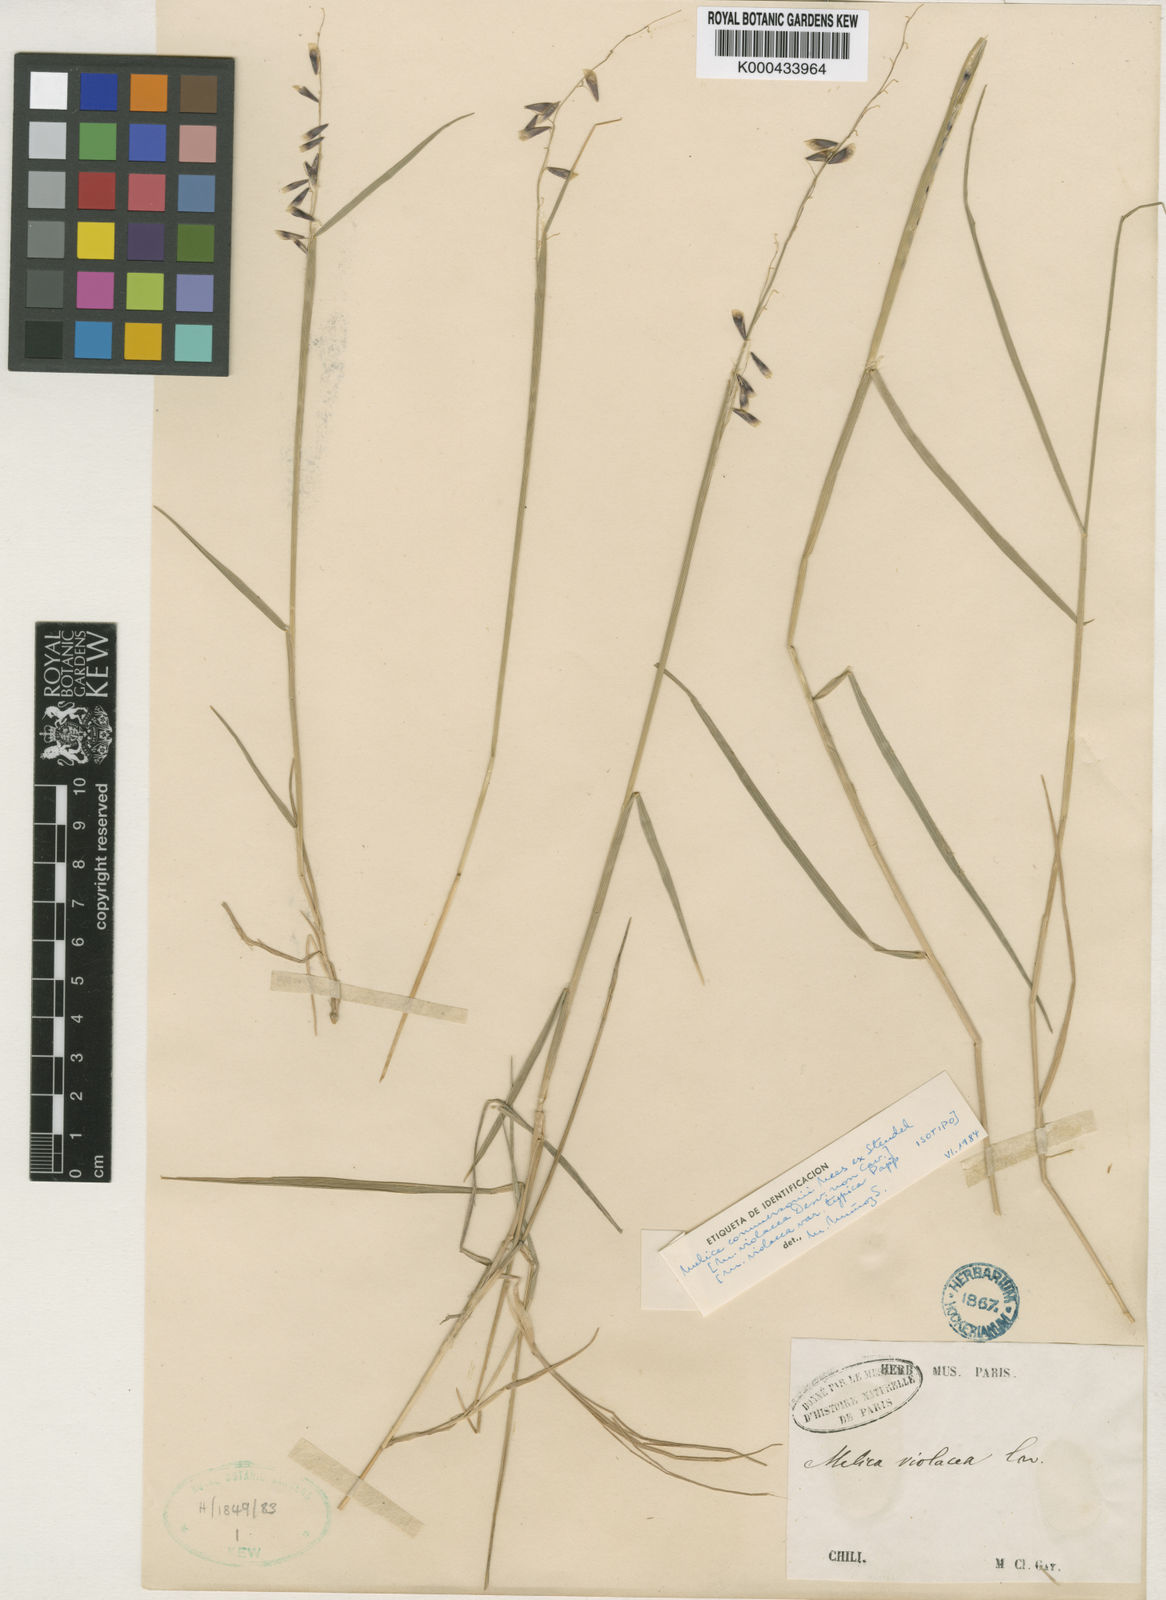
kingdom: Plantae
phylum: Tracheophyta
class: Liliopsida
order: Poales
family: Poaceae
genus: Melica
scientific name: Melica commersonii
